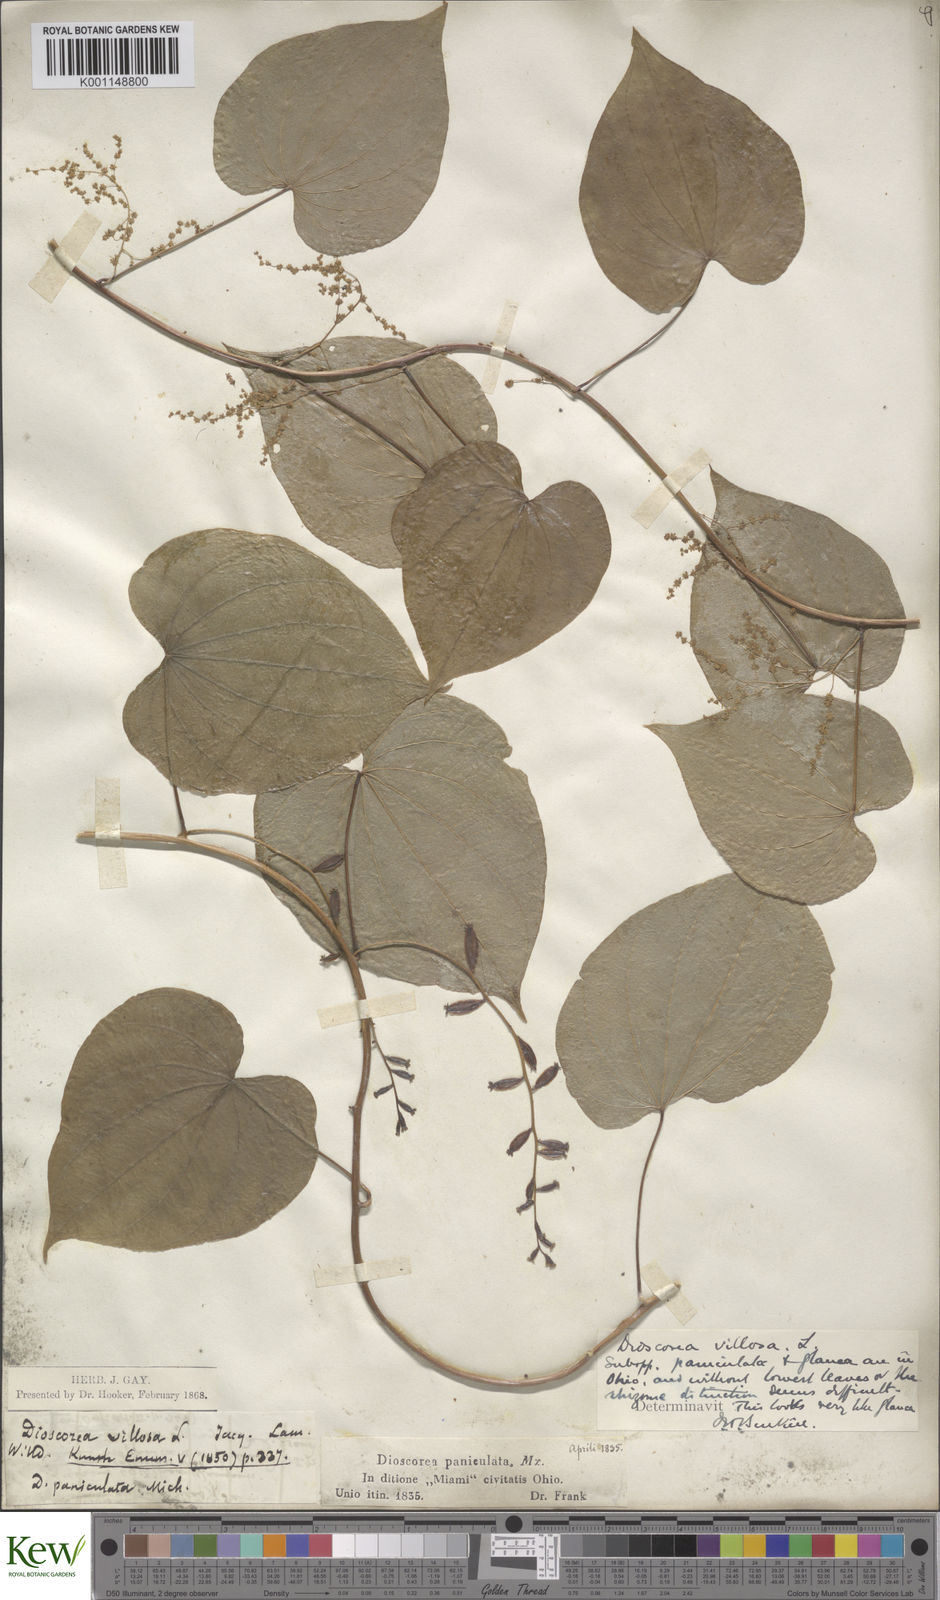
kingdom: Plantae
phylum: Tracheophyta
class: Liliopsida
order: Dioscoreales
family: Dioscoreaceae
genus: Dioscorea
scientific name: Dioscorea villosa
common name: Wild yam
